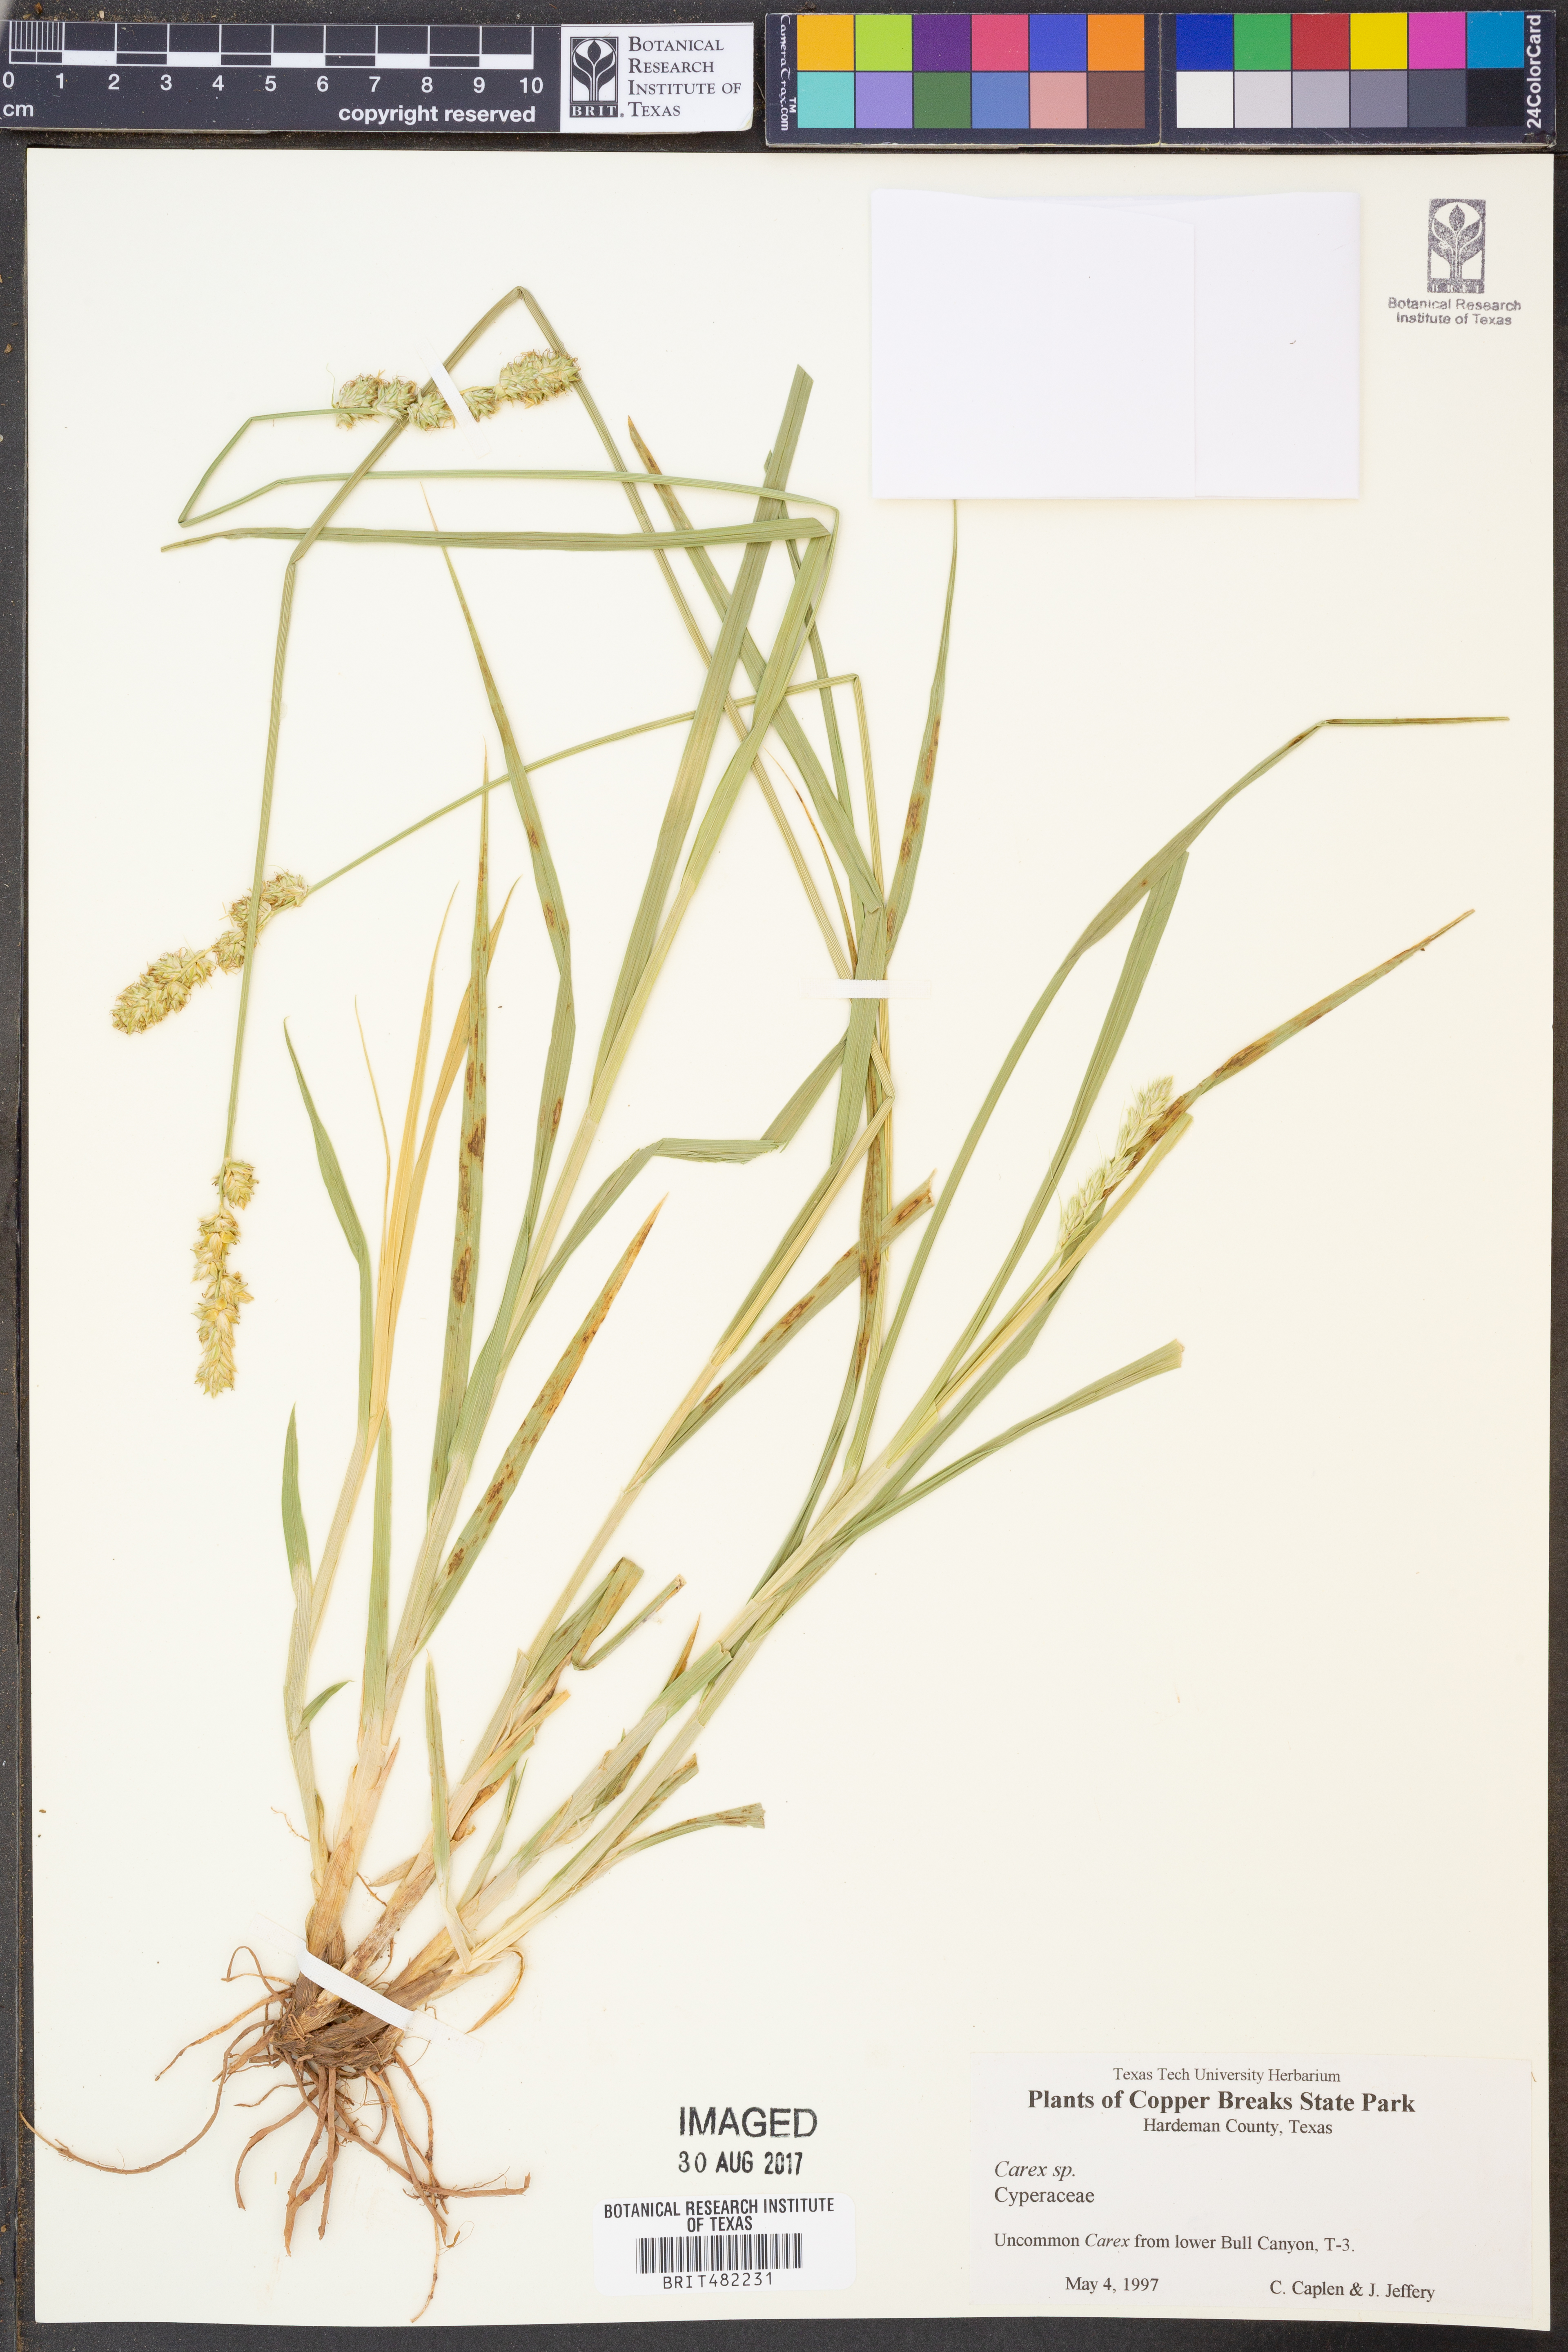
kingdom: Plantae
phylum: Tracheophyta
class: Liliopsida
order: Poales
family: Cyperaceae
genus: Carex
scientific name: Carex
